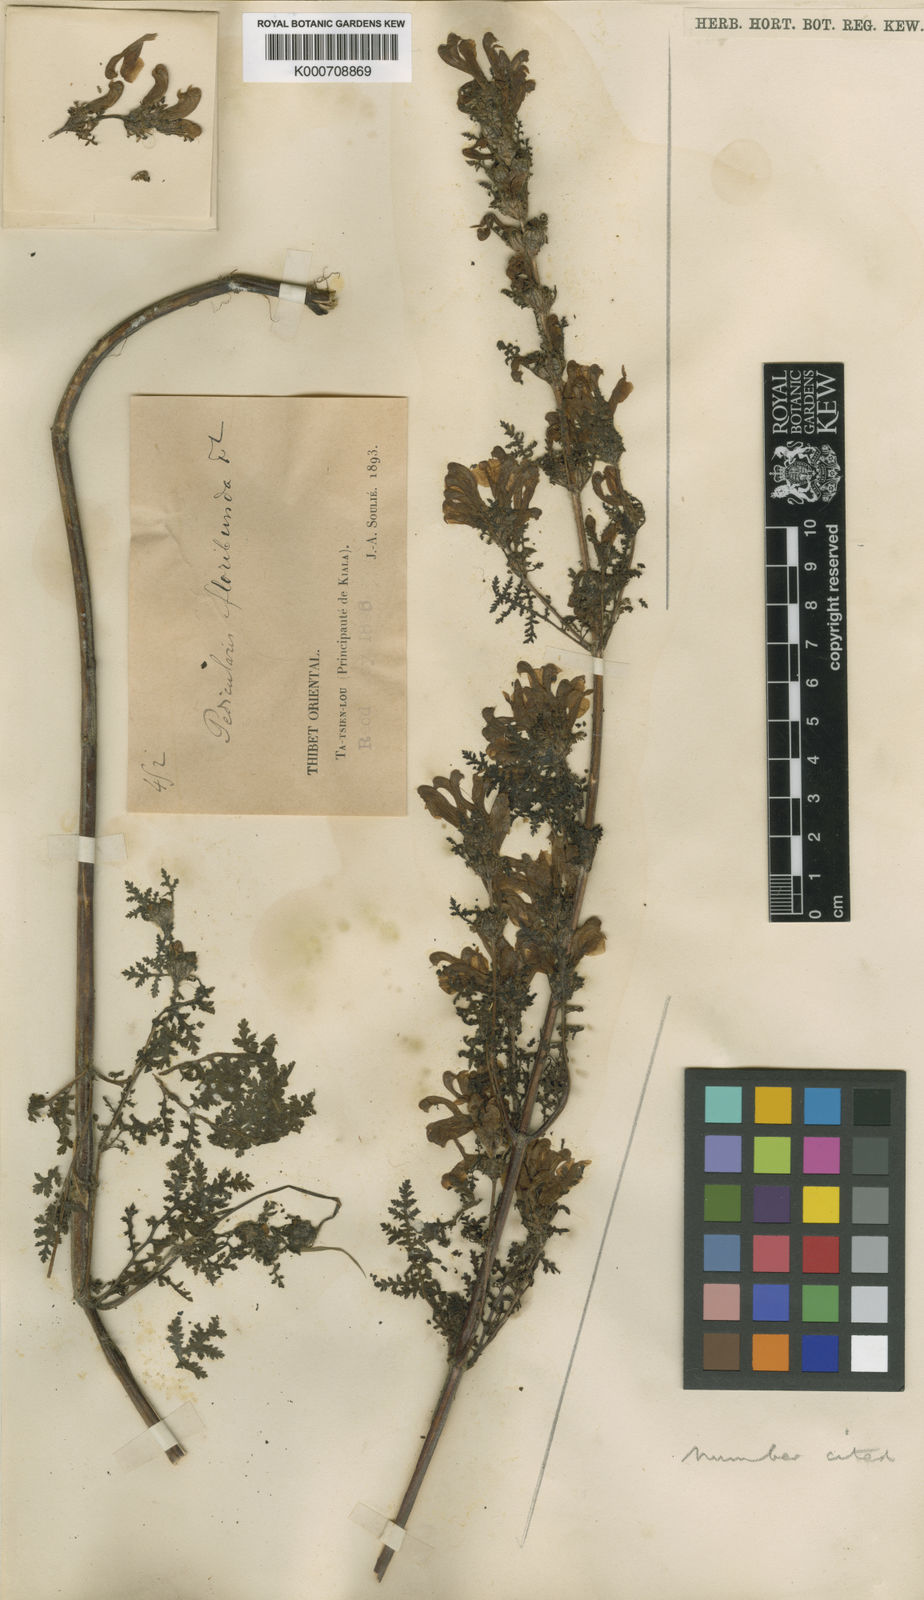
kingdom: Plantae
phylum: Tracheophyta
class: Magnoliopsida
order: Lamiales
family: Orobanchaceae
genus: Pedicularis
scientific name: Pedicularis floribunda
